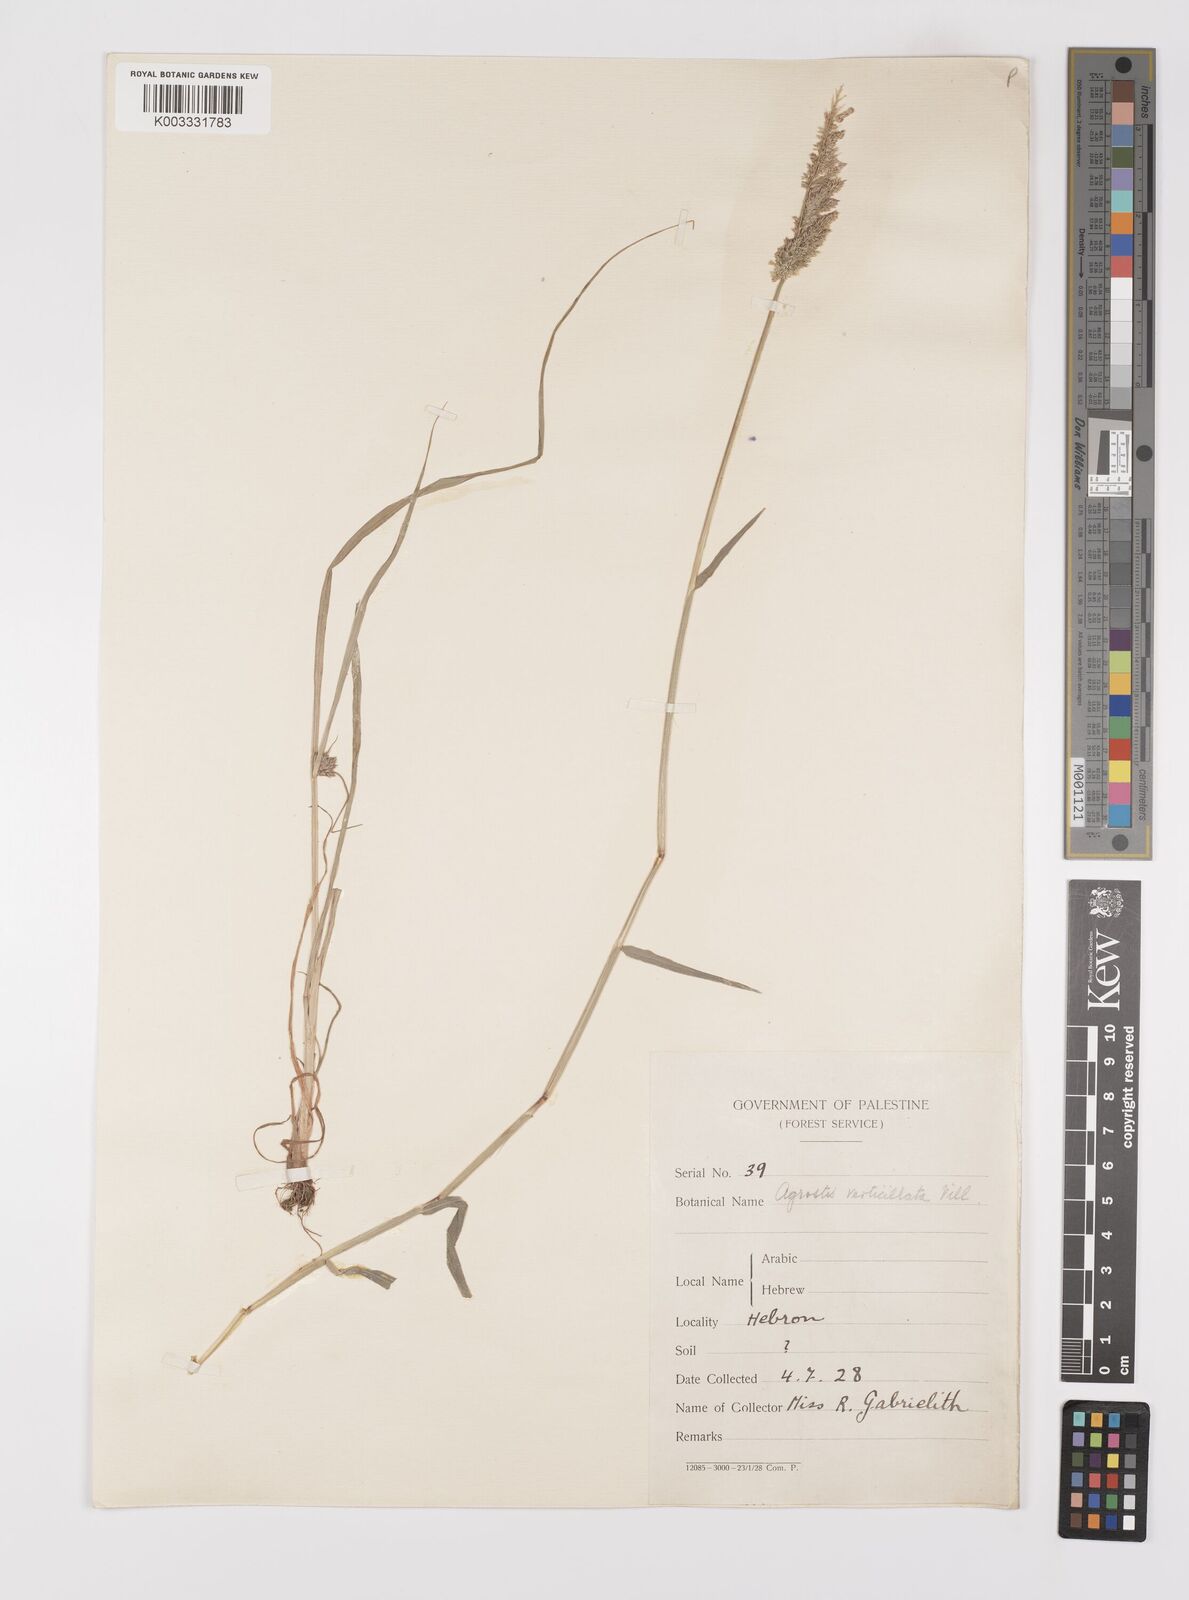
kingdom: Plantae
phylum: Tracheophyta
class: Liliopsida
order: Poales
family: Poaceae
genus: Polypogon
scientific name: Polypogon viridis
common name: Water bent
